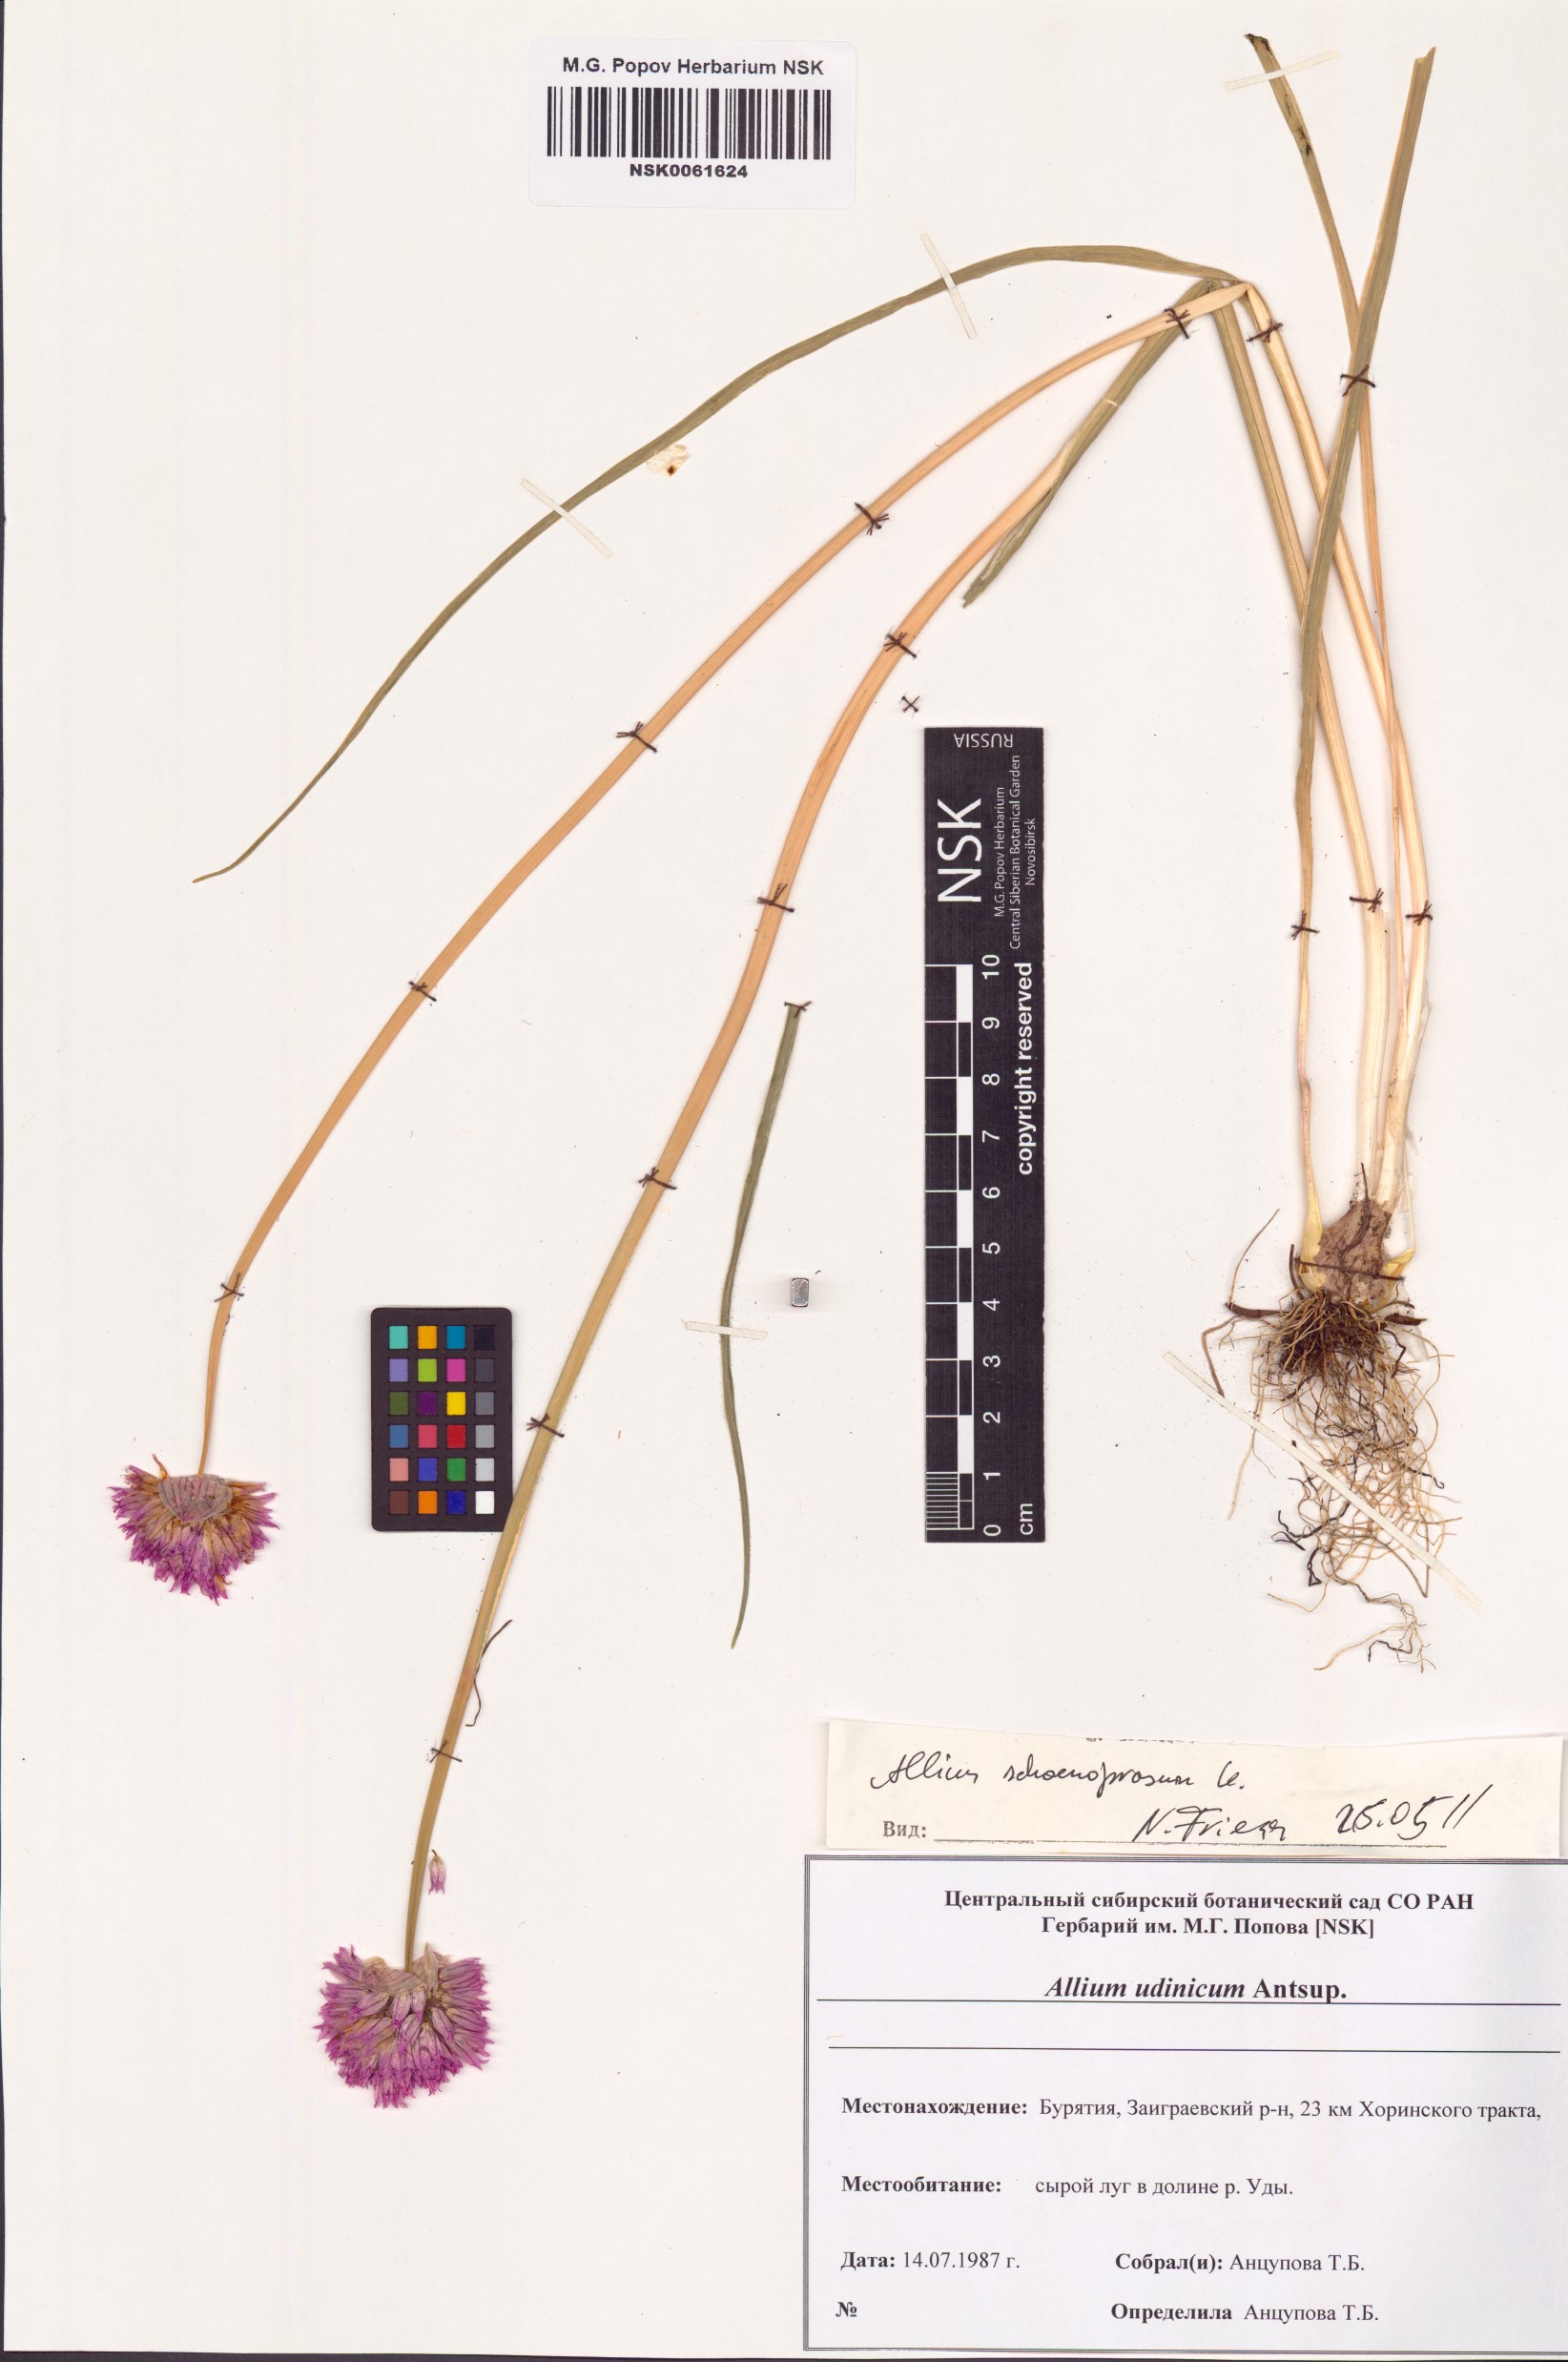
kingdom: Plantae
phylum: Tracheophyta
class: Liliopsida
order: Asparagales
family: Amaryllidaceae
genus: Allium
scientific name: Allium schoenoprasum
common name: Chives
